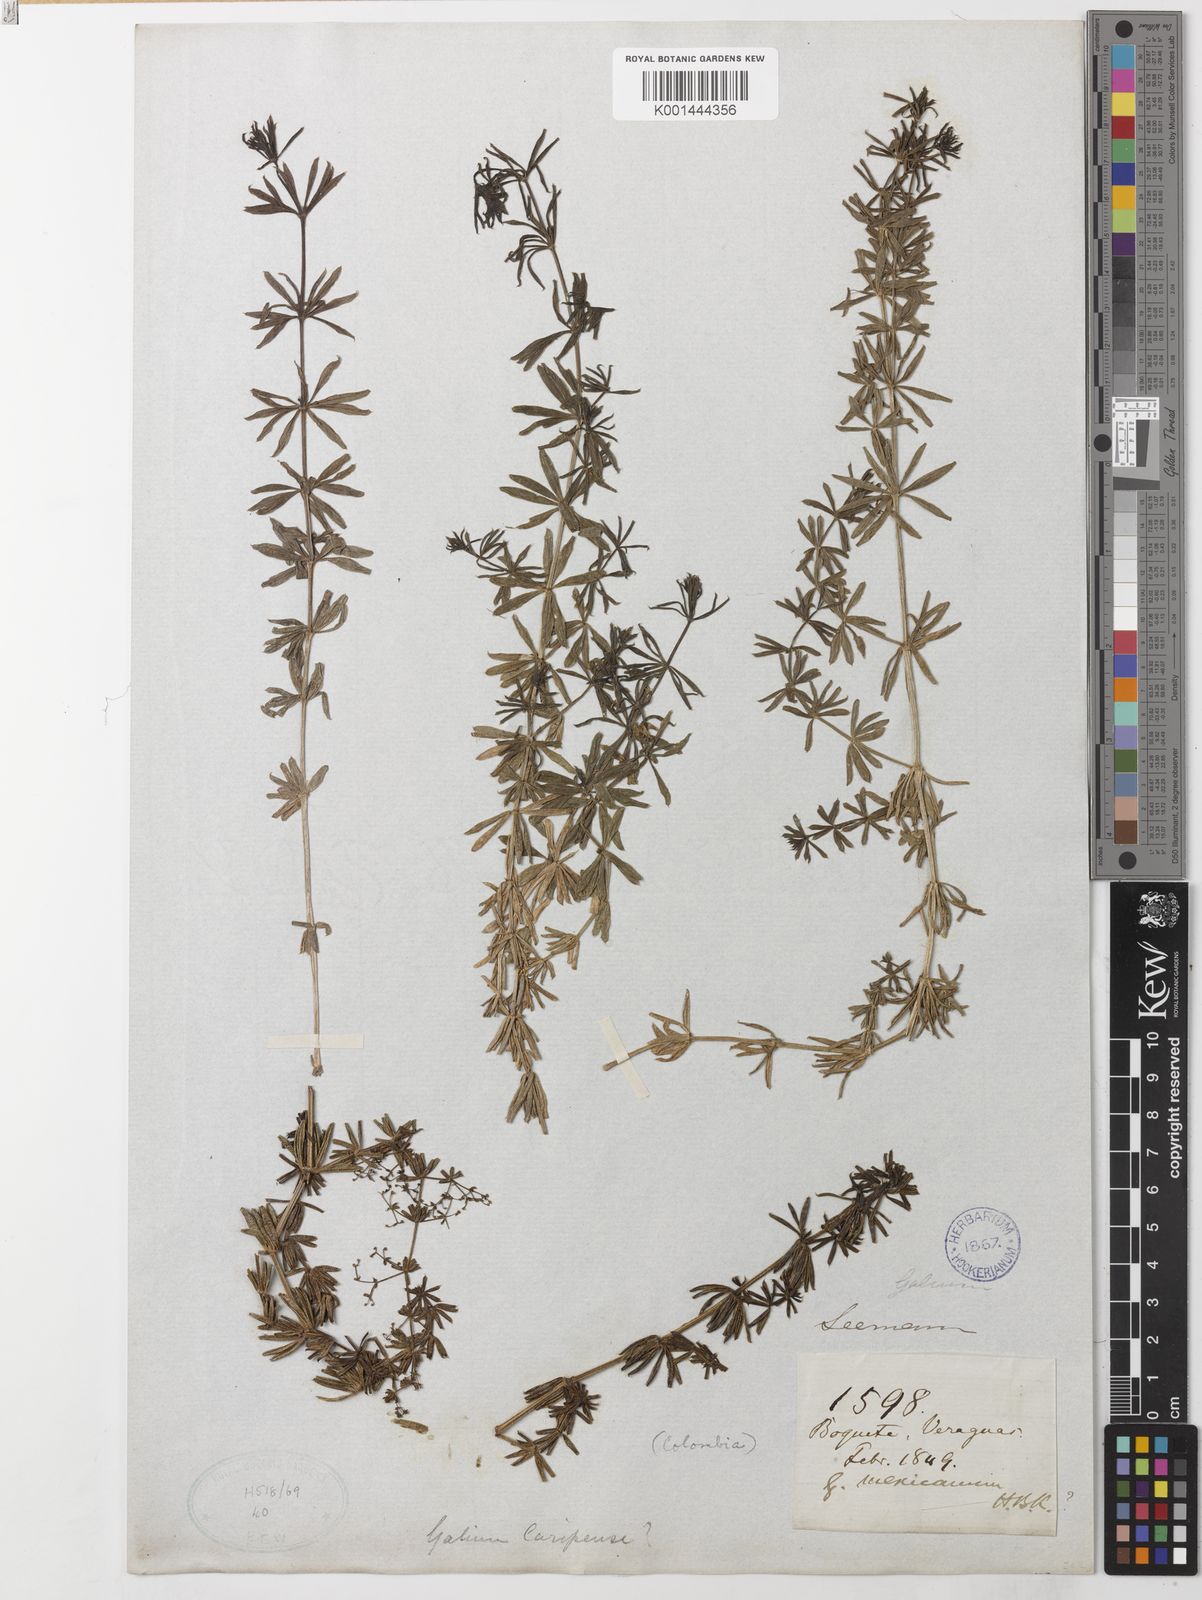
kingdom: Plantae
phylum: Tracheophyta
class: Magnoliopsida
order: Gentianales
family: Rubiaceae
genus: Galium
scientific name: Galium mexicanum
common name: Mexican bedstraw
